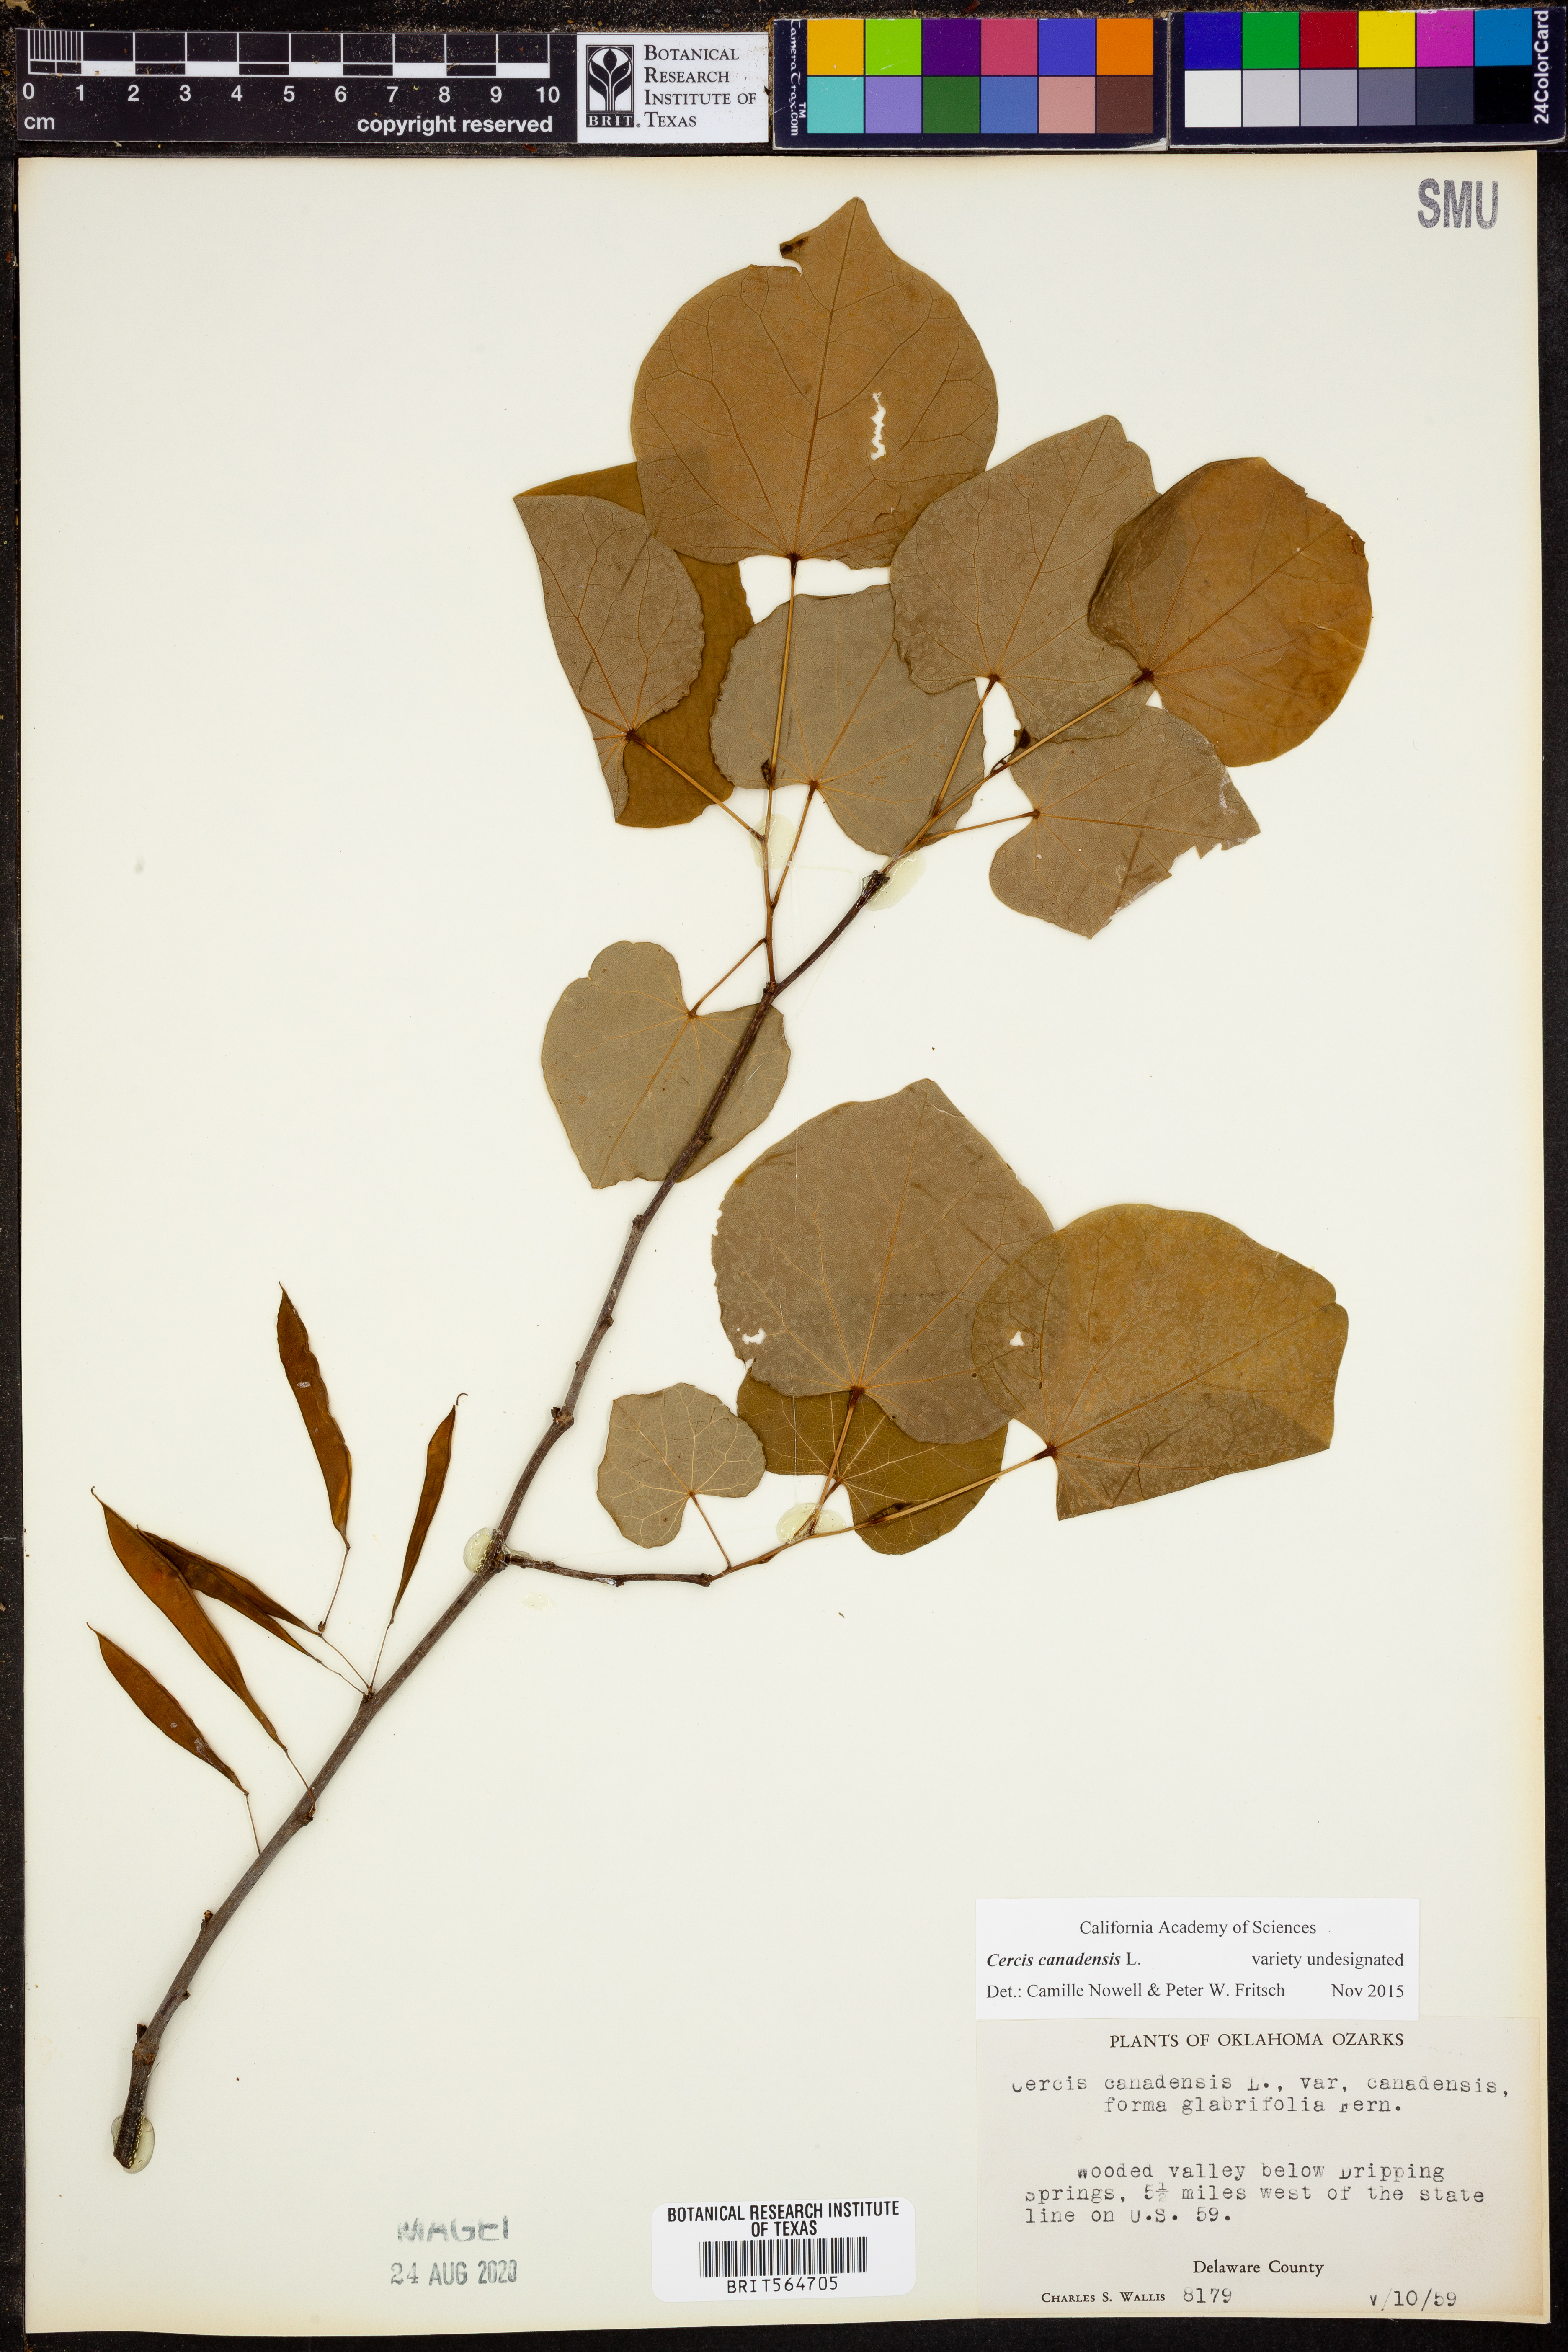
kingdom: Plantae
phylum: Tracheophyta
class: Magnoliopsida
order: Fabales
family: Fabaceae
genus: Cercis
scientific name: Cercis canadensis
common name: Eastern redbud
